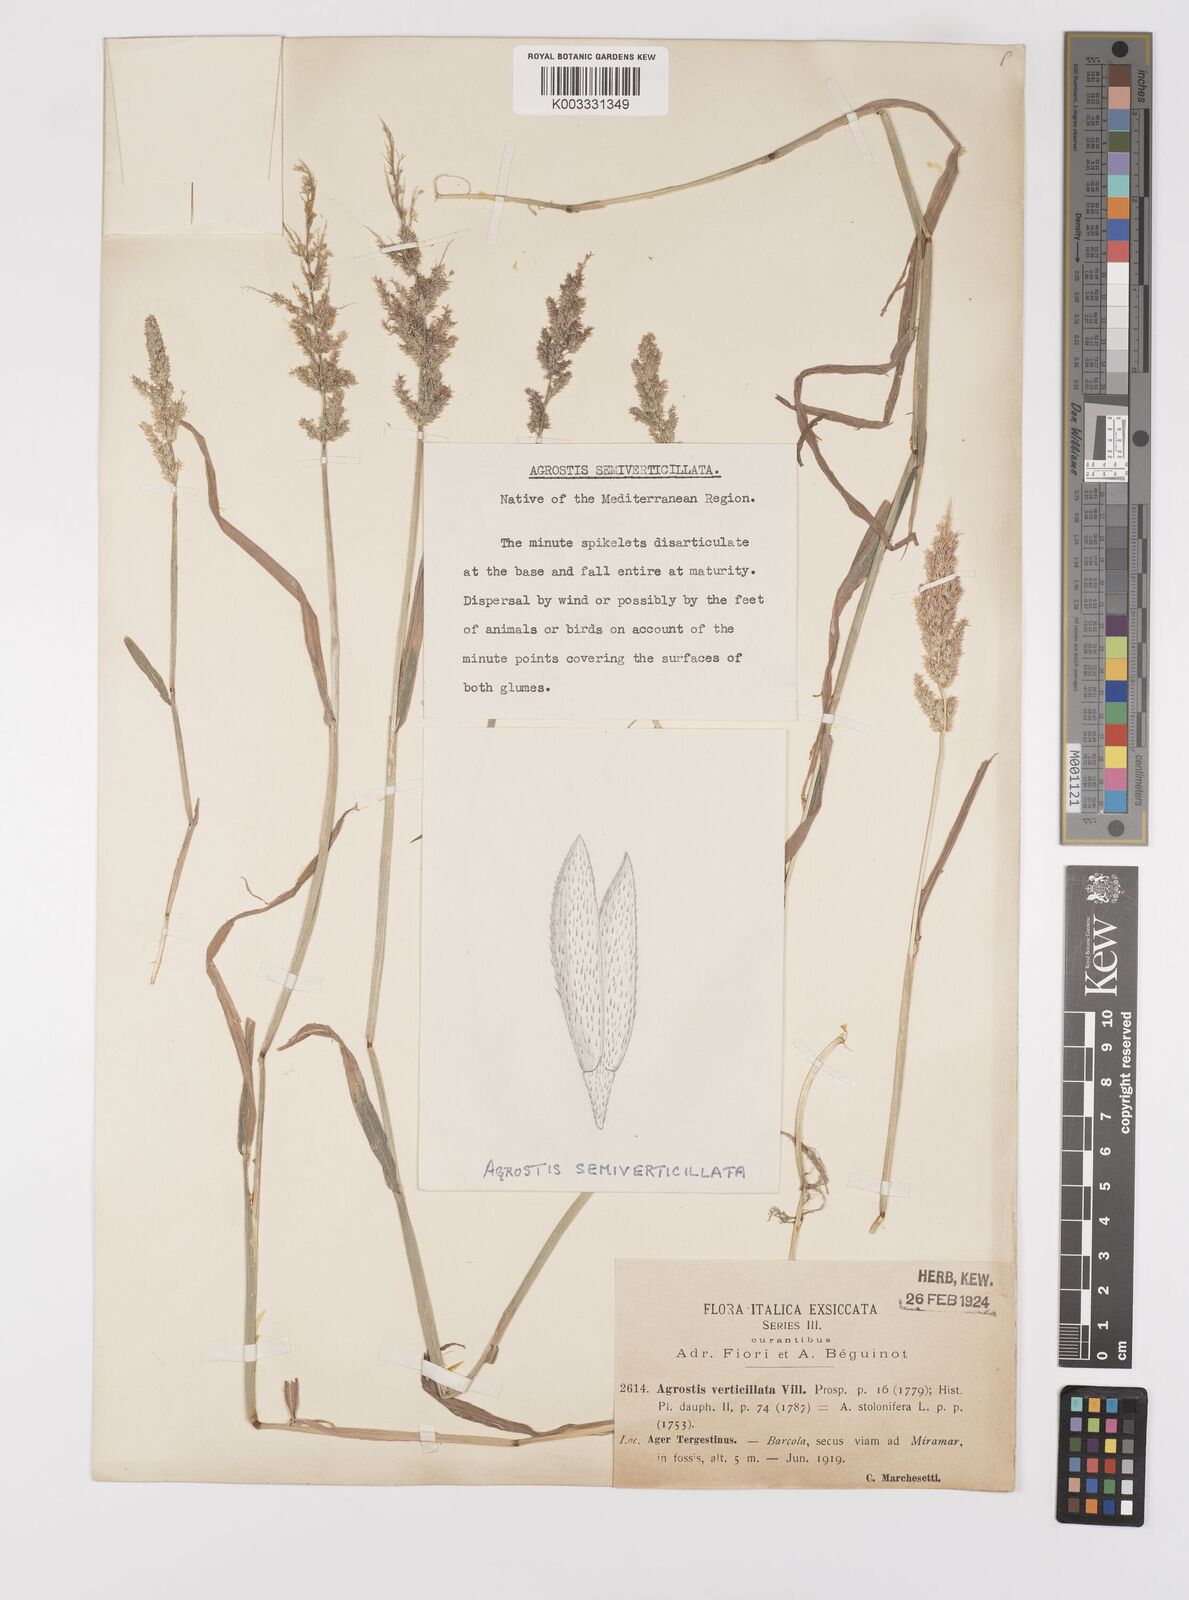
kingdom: Plantae
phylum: Tracheophyta
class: Liliopsida
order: Poales
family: Poaceae
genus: Polypogon
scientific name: Polypogon viridis
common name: Water bent
